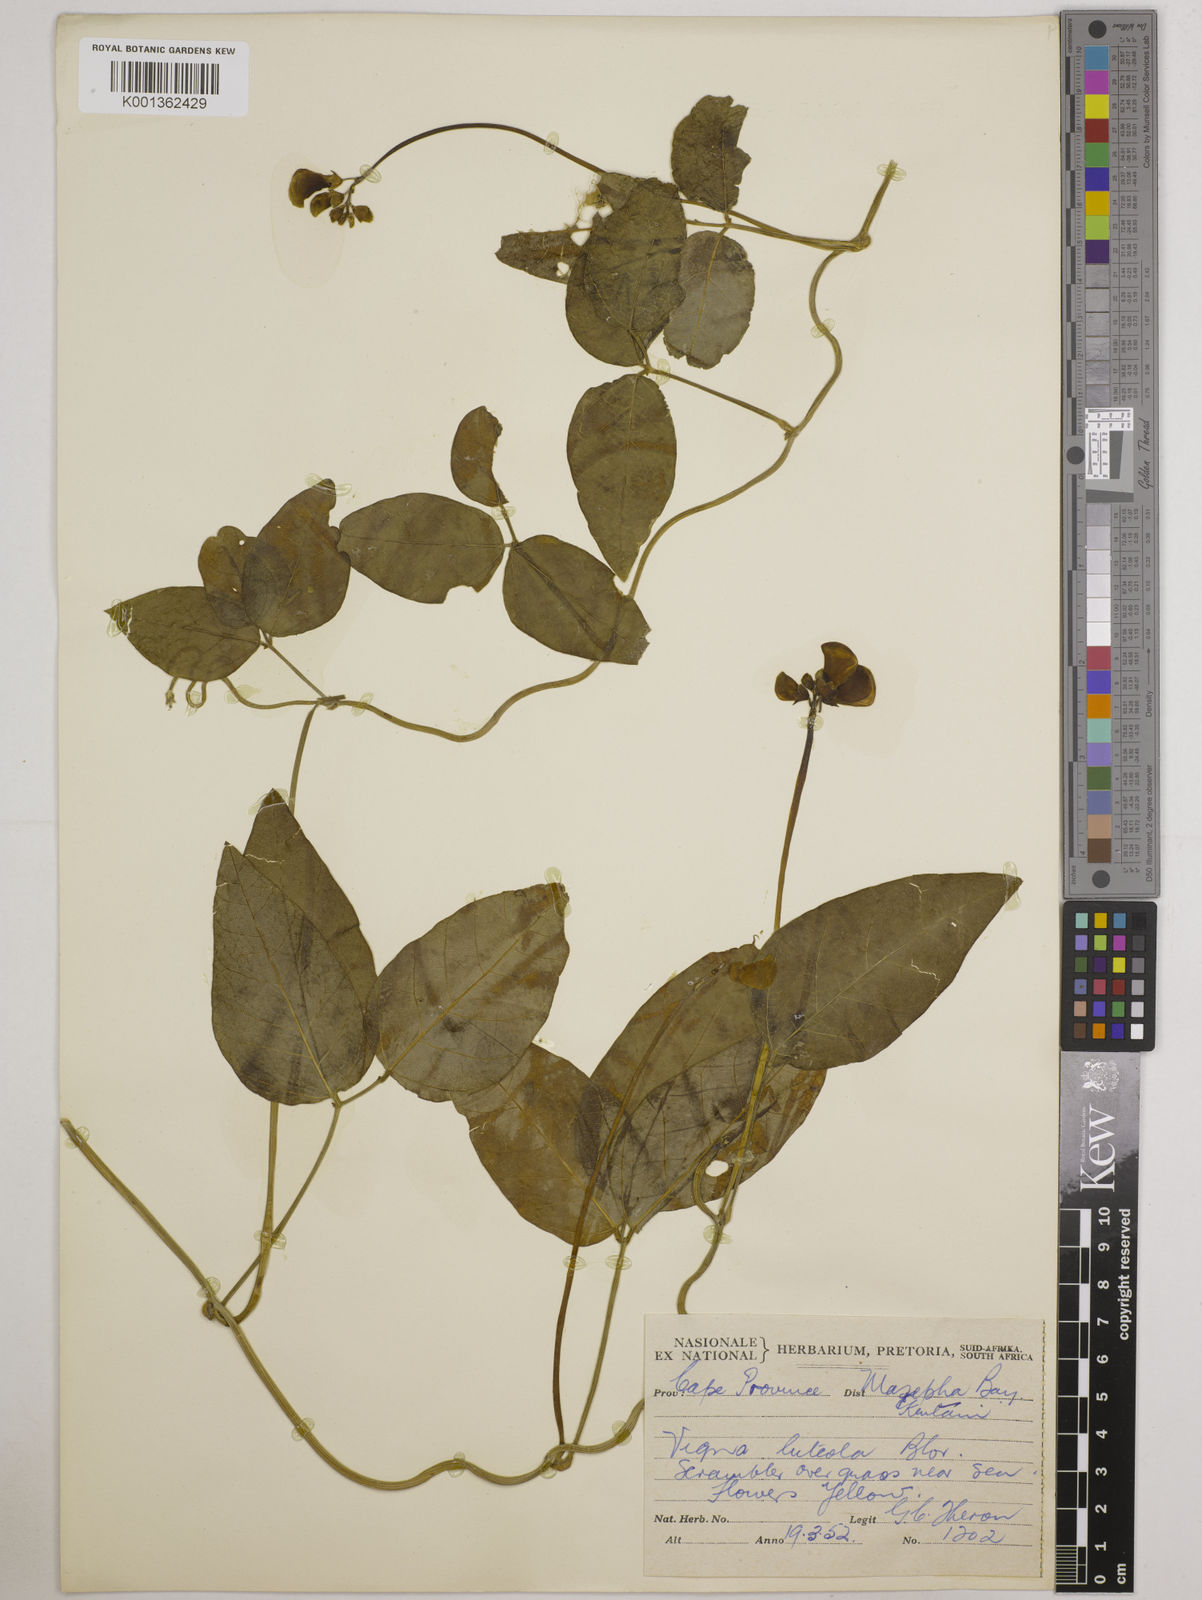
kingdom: Plantae
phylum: Tracheophyta
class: Magnoliopsida
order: Fabales
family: Fabaceae
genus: Vigna
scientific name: Vigna luteola
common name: Hairypod cowpea
